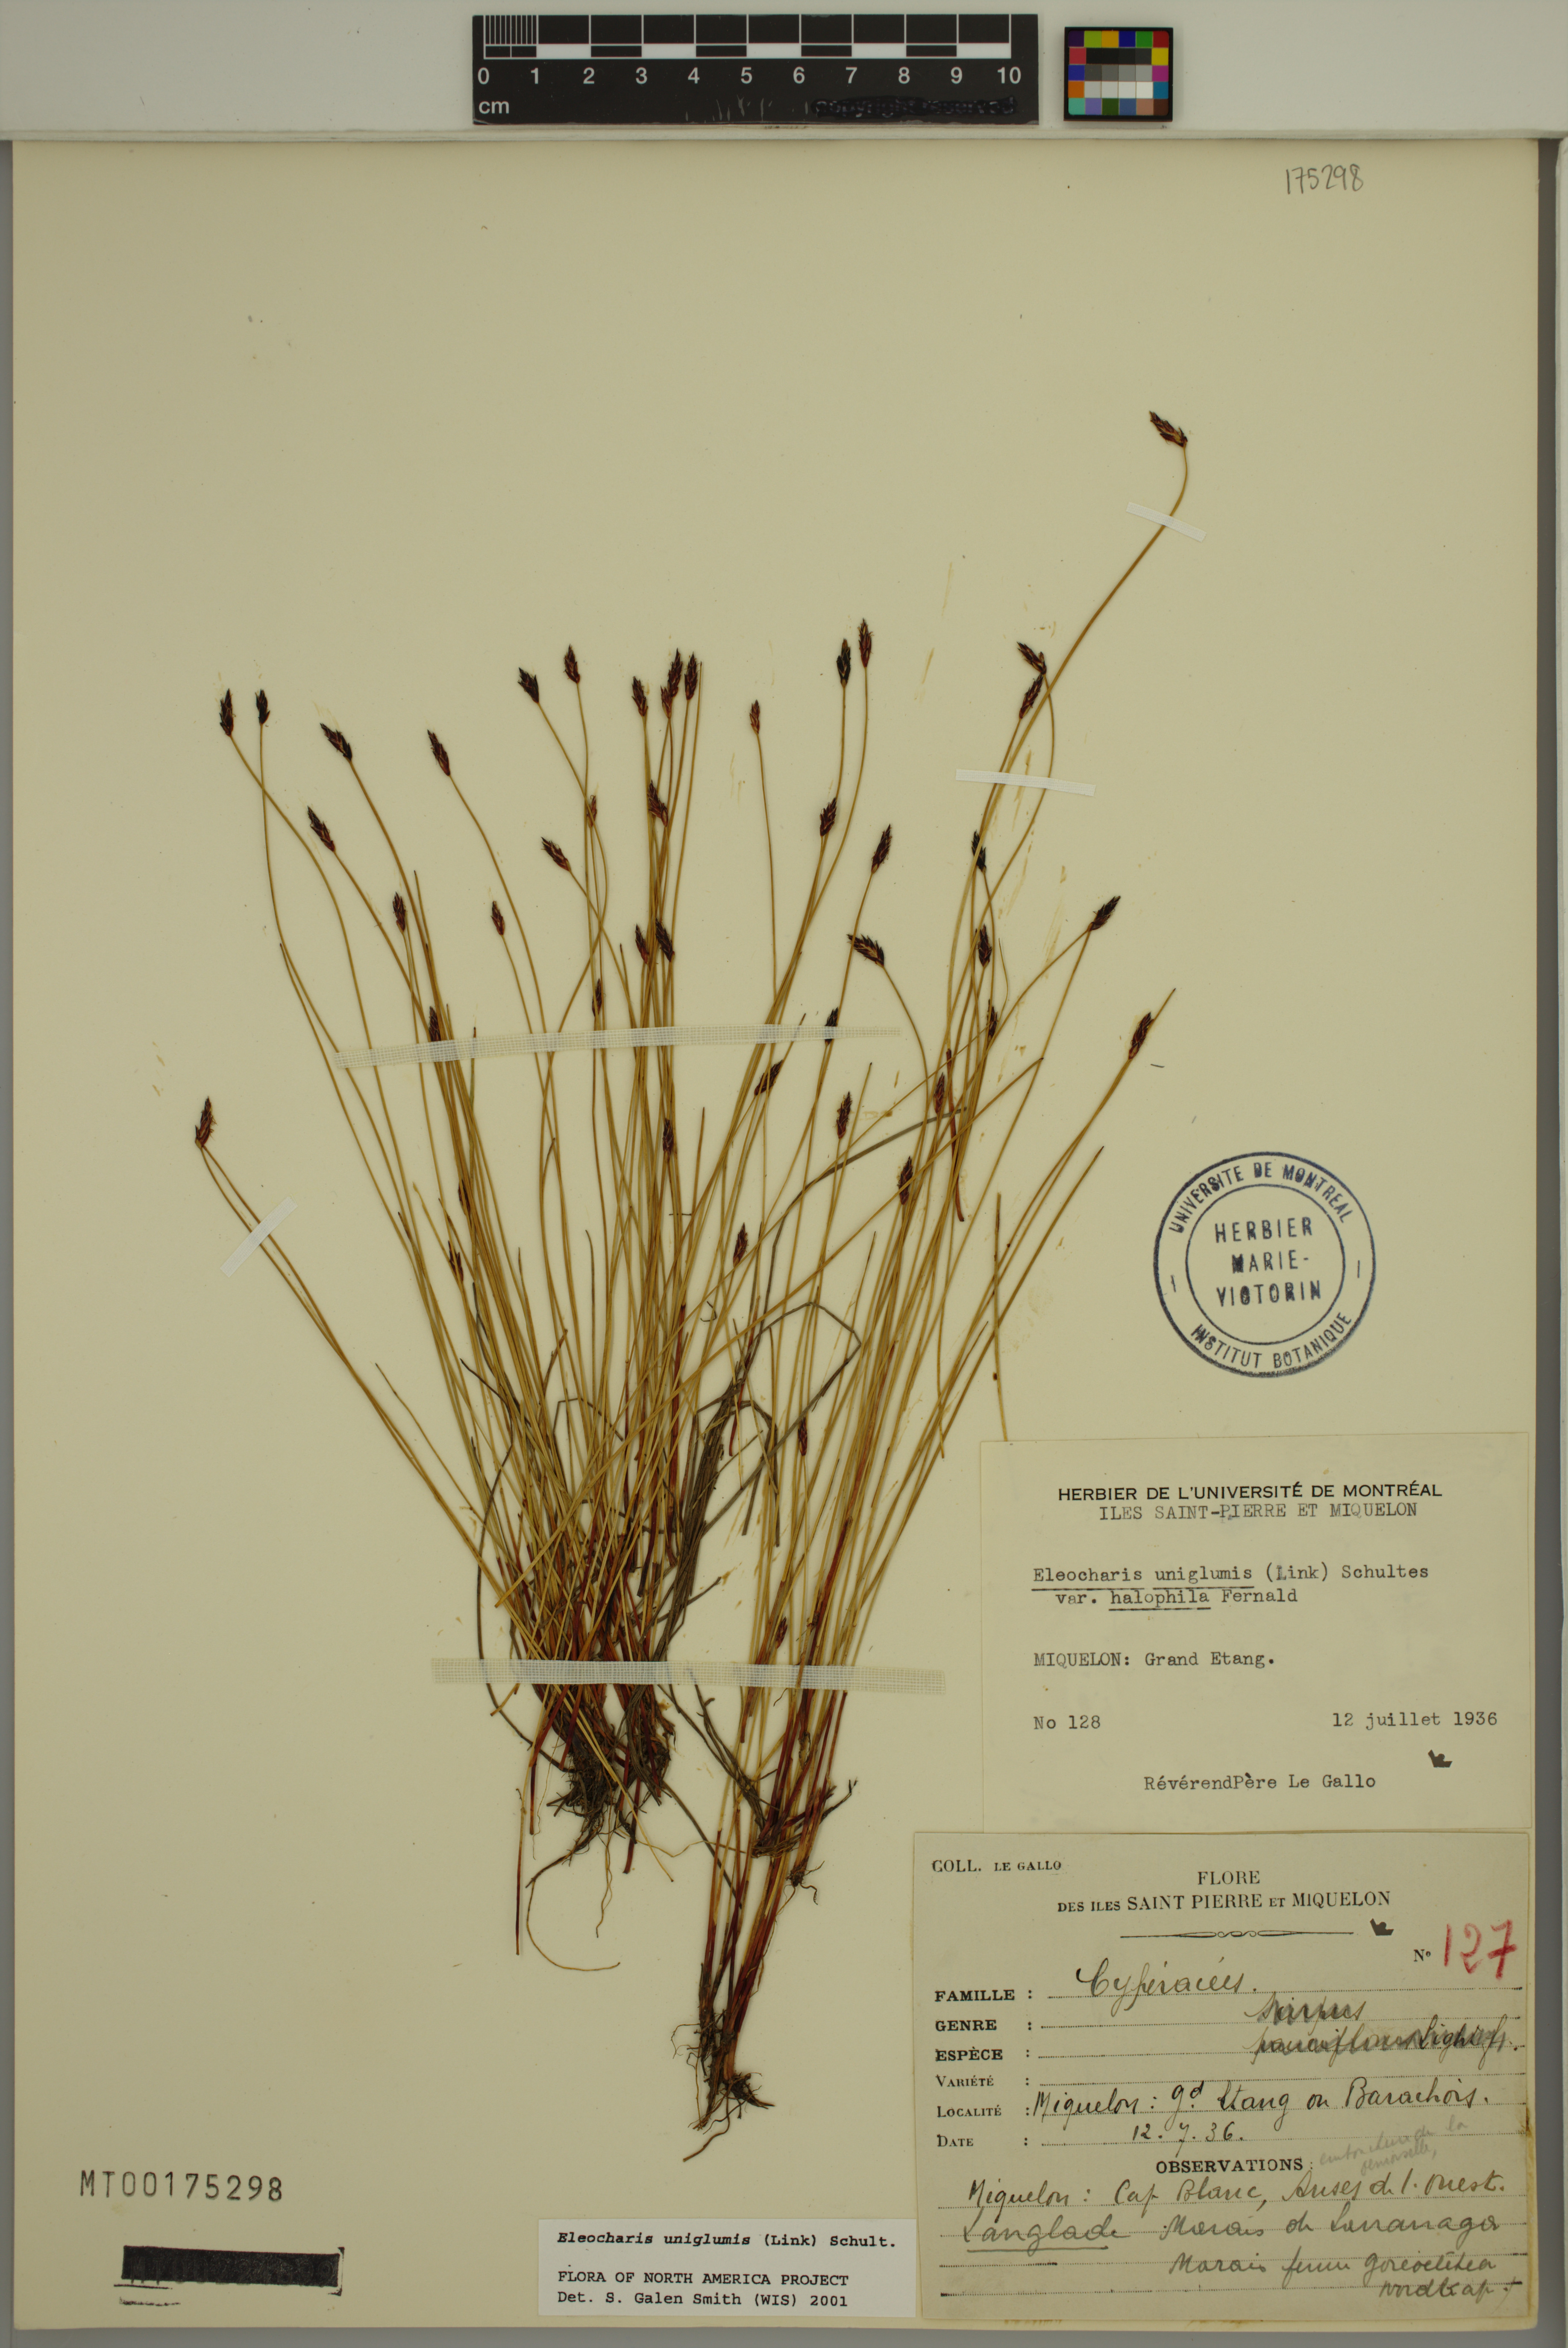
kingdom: Plantae
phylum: Tracheophyta
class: Liliopsida
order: Poales
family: Cyperaceae
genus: Eleocharis
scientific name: Eleocharis uniglumis
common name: Slender spike-rush
